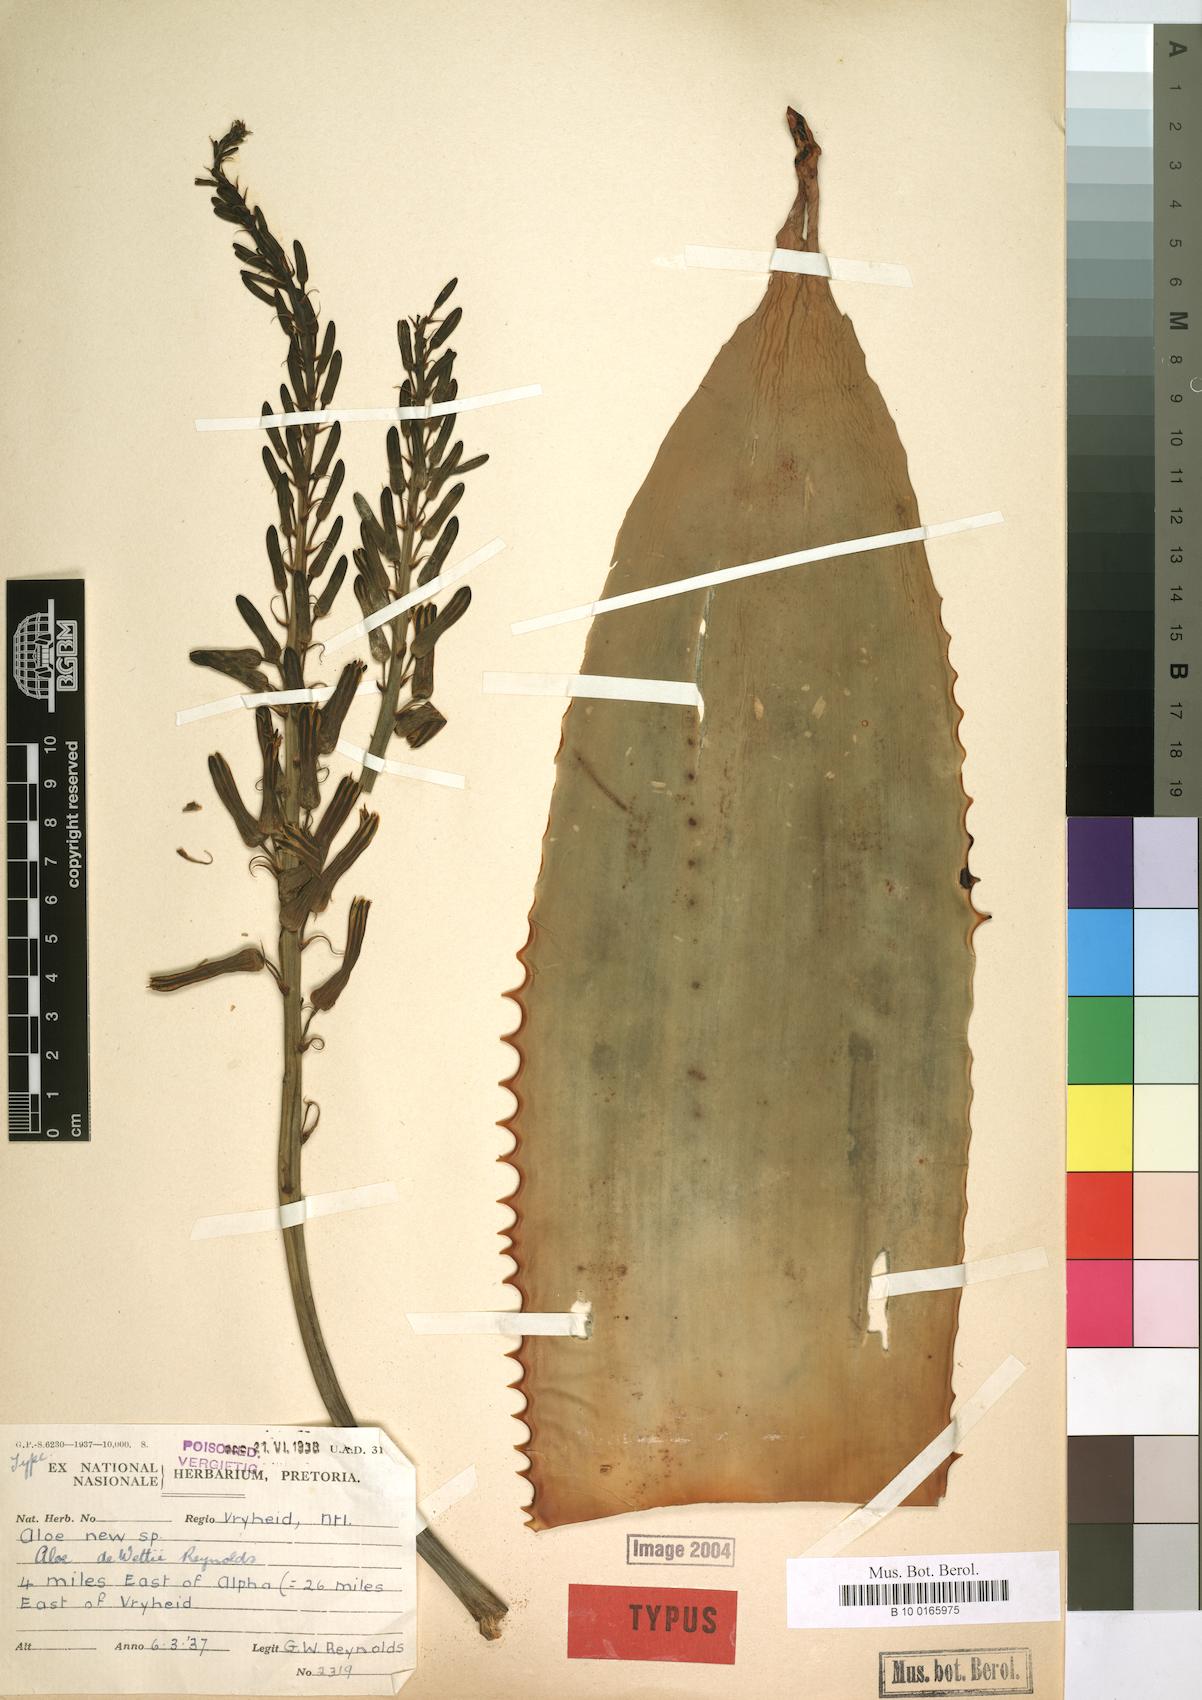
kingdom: Plantae
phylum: Tracheophyta
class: Liliopsida
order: Asparagales
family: Asphodelaceae
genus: Aloe
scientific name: Aloe dewetii
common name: De wet's aloe
